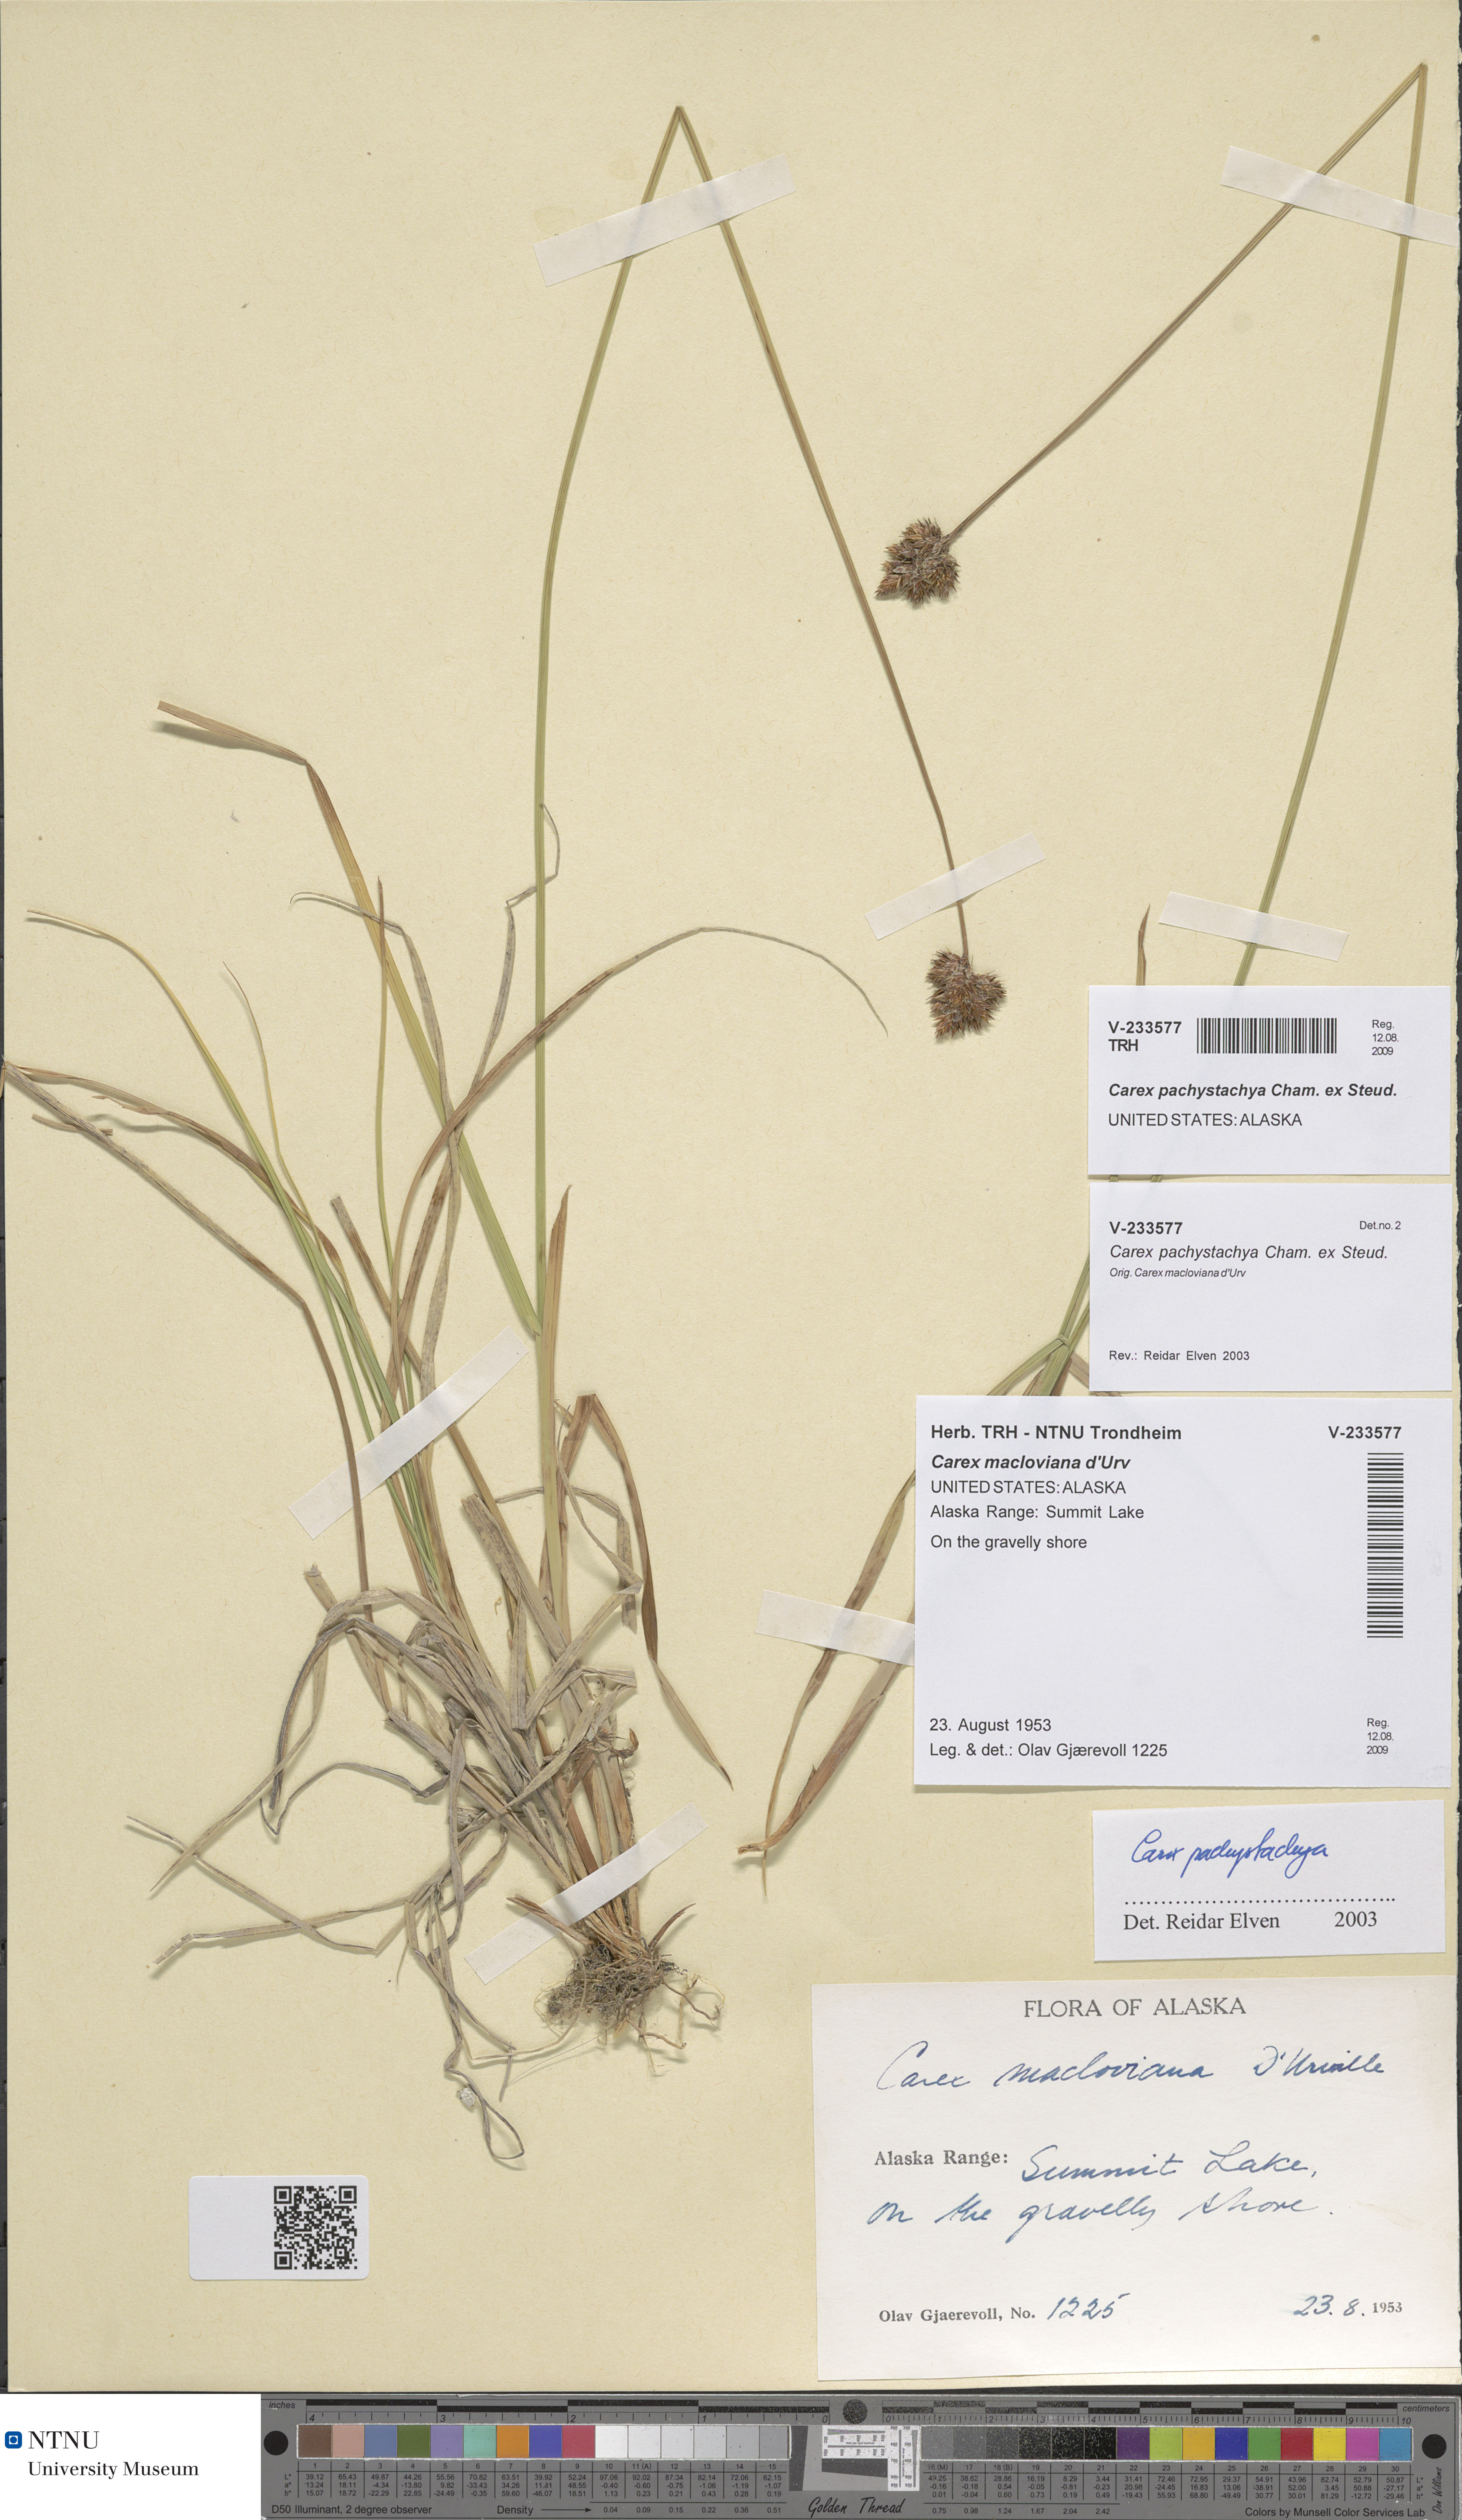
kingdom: Plantae
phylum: Tracheophyta
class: Liliopsida
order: Poales
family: Cyperaceae
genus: Carex
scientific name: Carex pachystachya
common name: Chamisso's sedge
